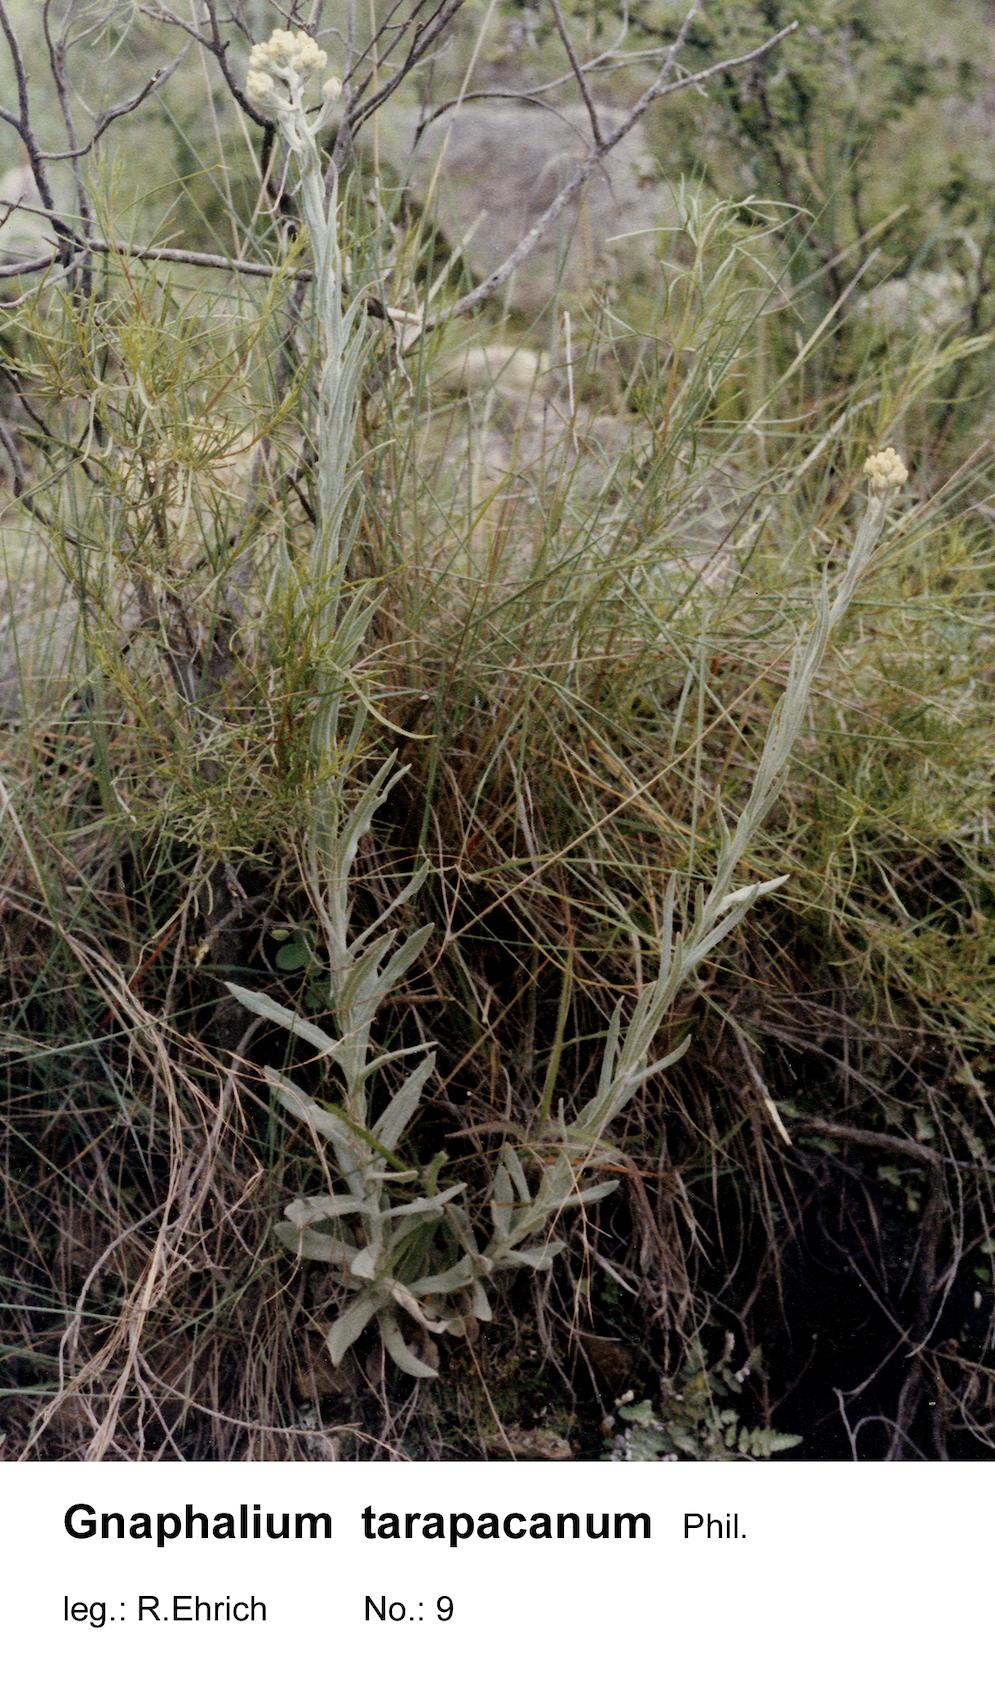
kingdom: Plantae
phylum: Tracheophyta
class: Magnoliopsida
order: Asterales
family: Asteraceae
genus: Pseudognaphalium
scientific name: Pseudognaphalium tarapacanum
